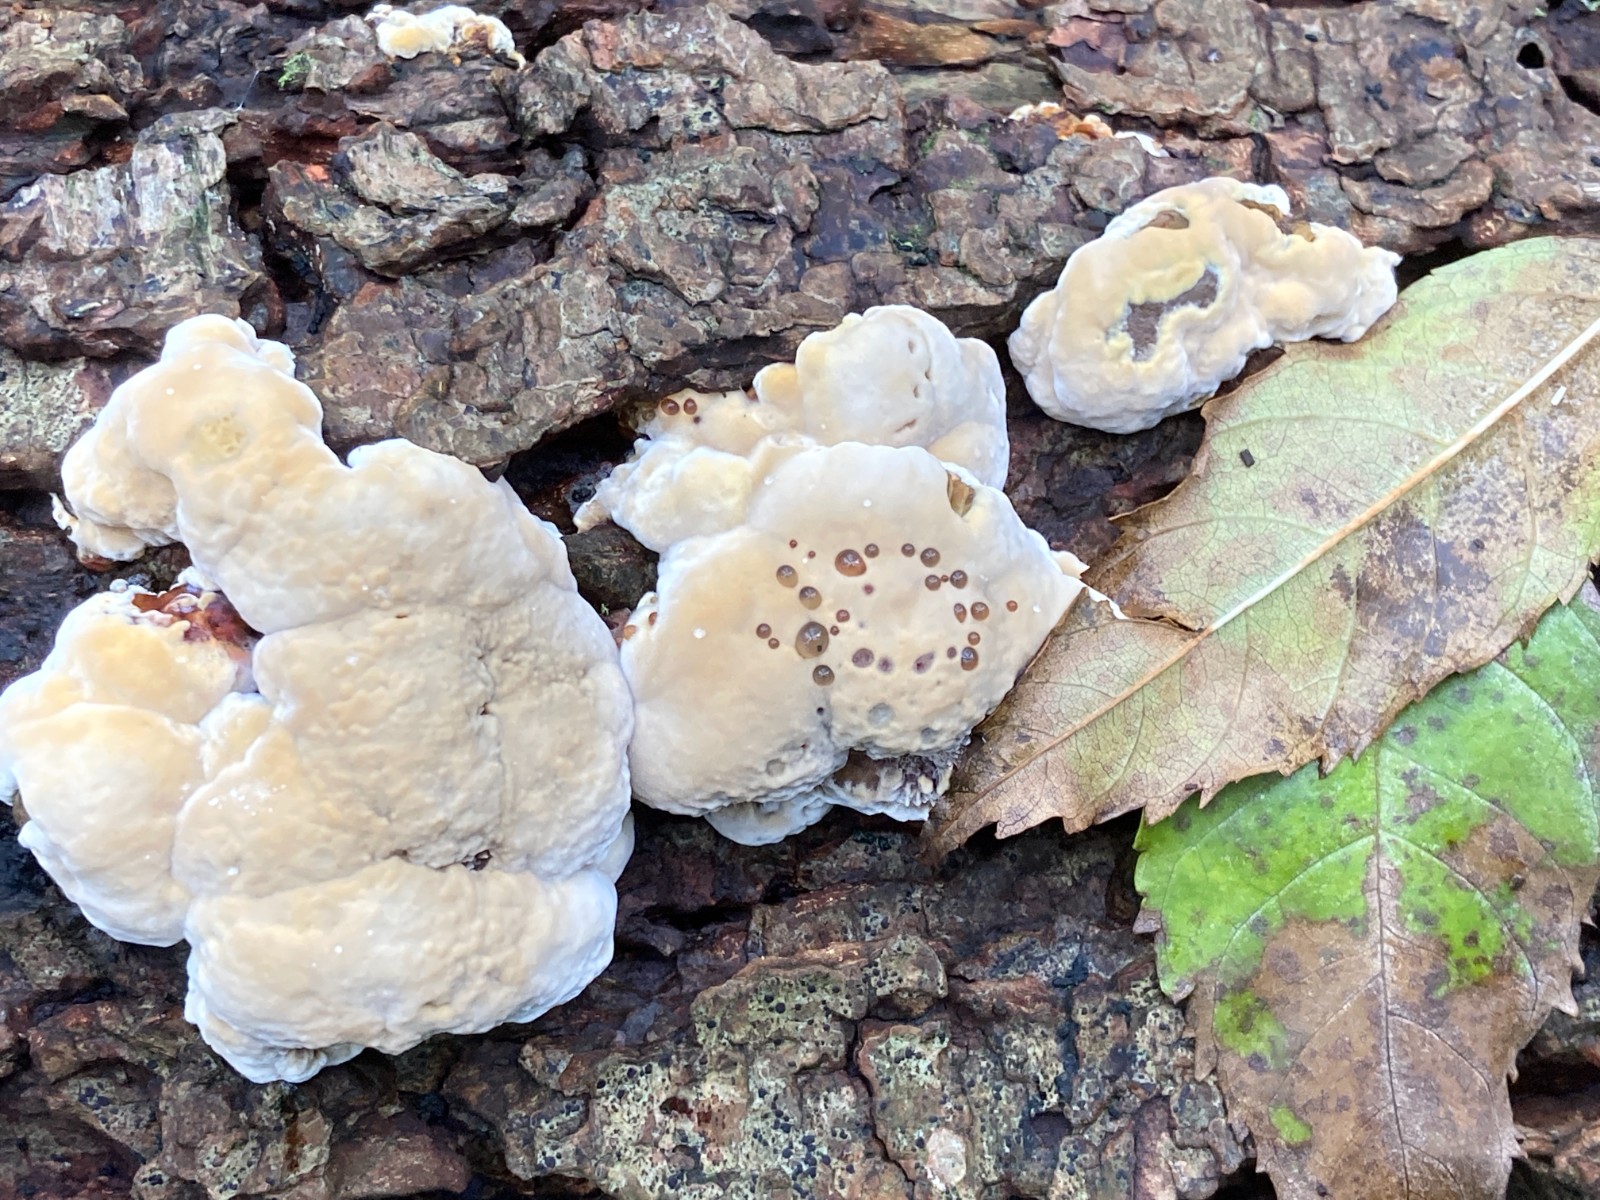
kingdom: Fungi
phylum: Basidiomycota
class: Agaricomycetes
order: Hymenochaetales
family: Hymenochaetaceae
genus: Xanthoporia
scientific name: Xanthoporia radiata
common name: elle-spejlporesvamp
